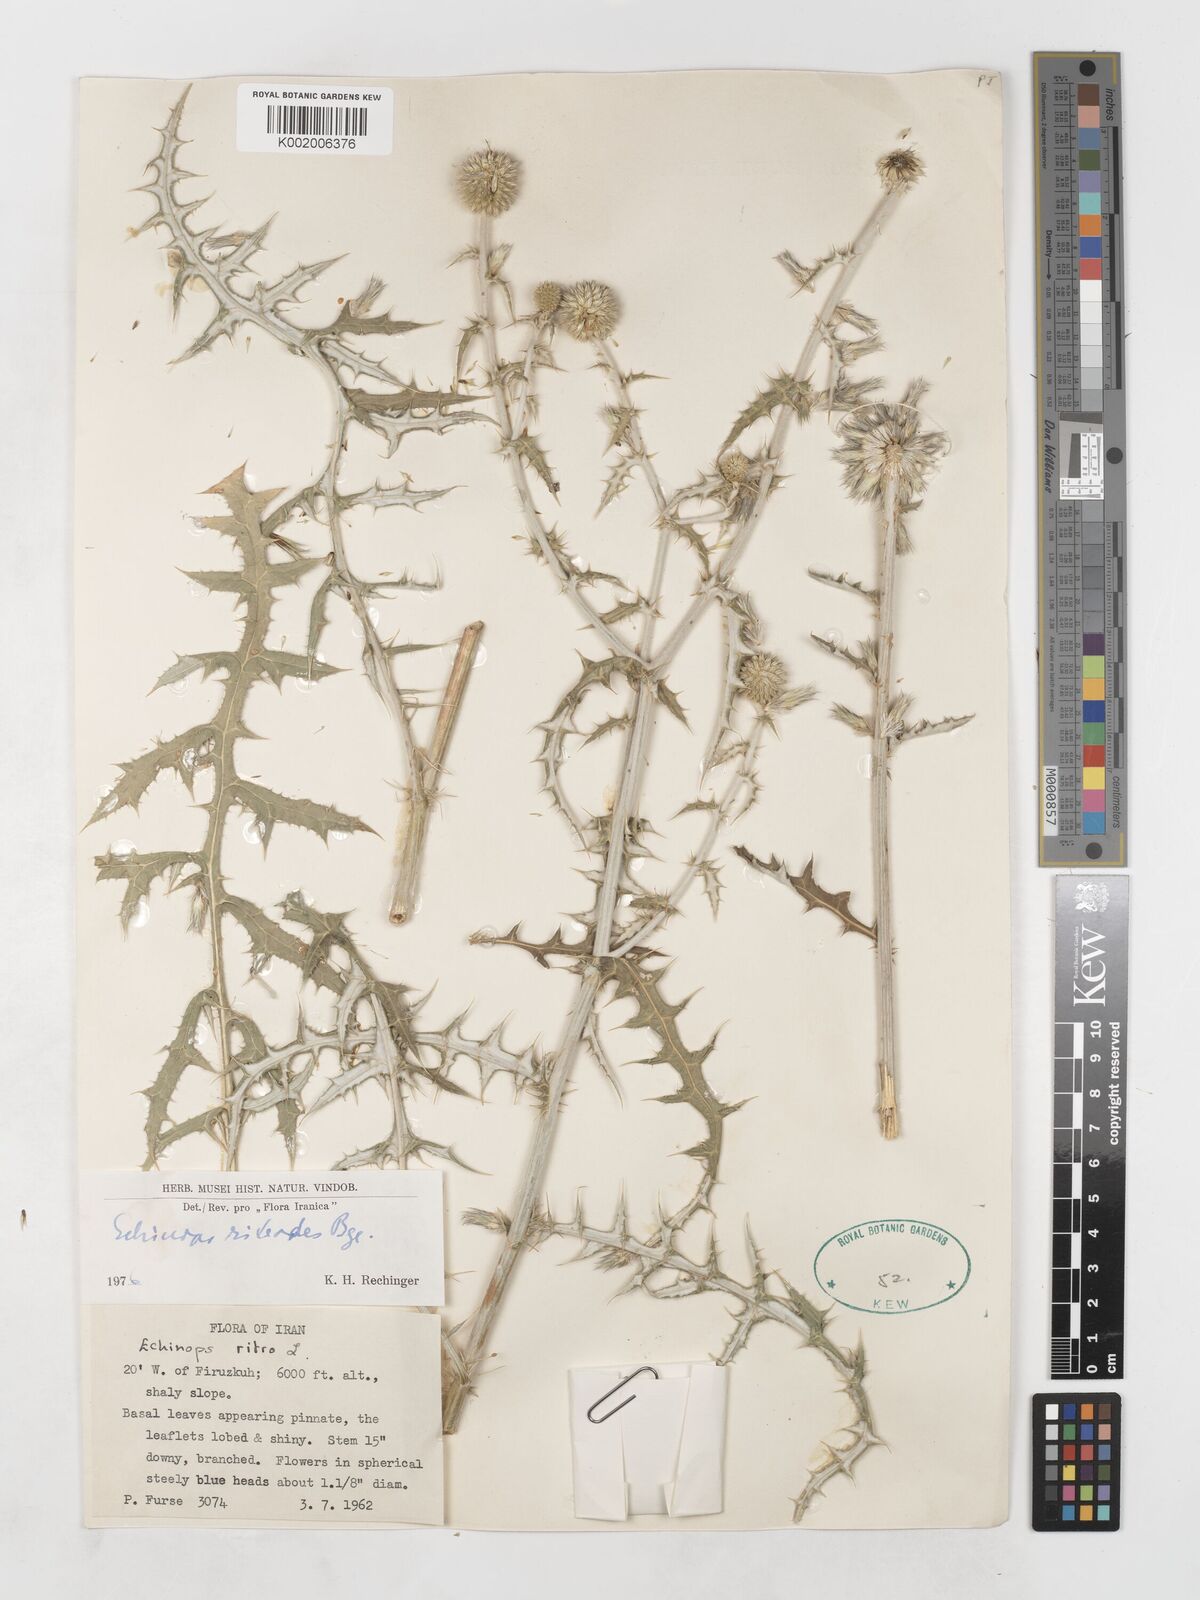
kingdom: Plantae
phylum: Tracheophyta
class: Magnoliopsida
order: Asterales
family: Asteraceae
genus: Echinops
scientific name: Echinops ritrodes
